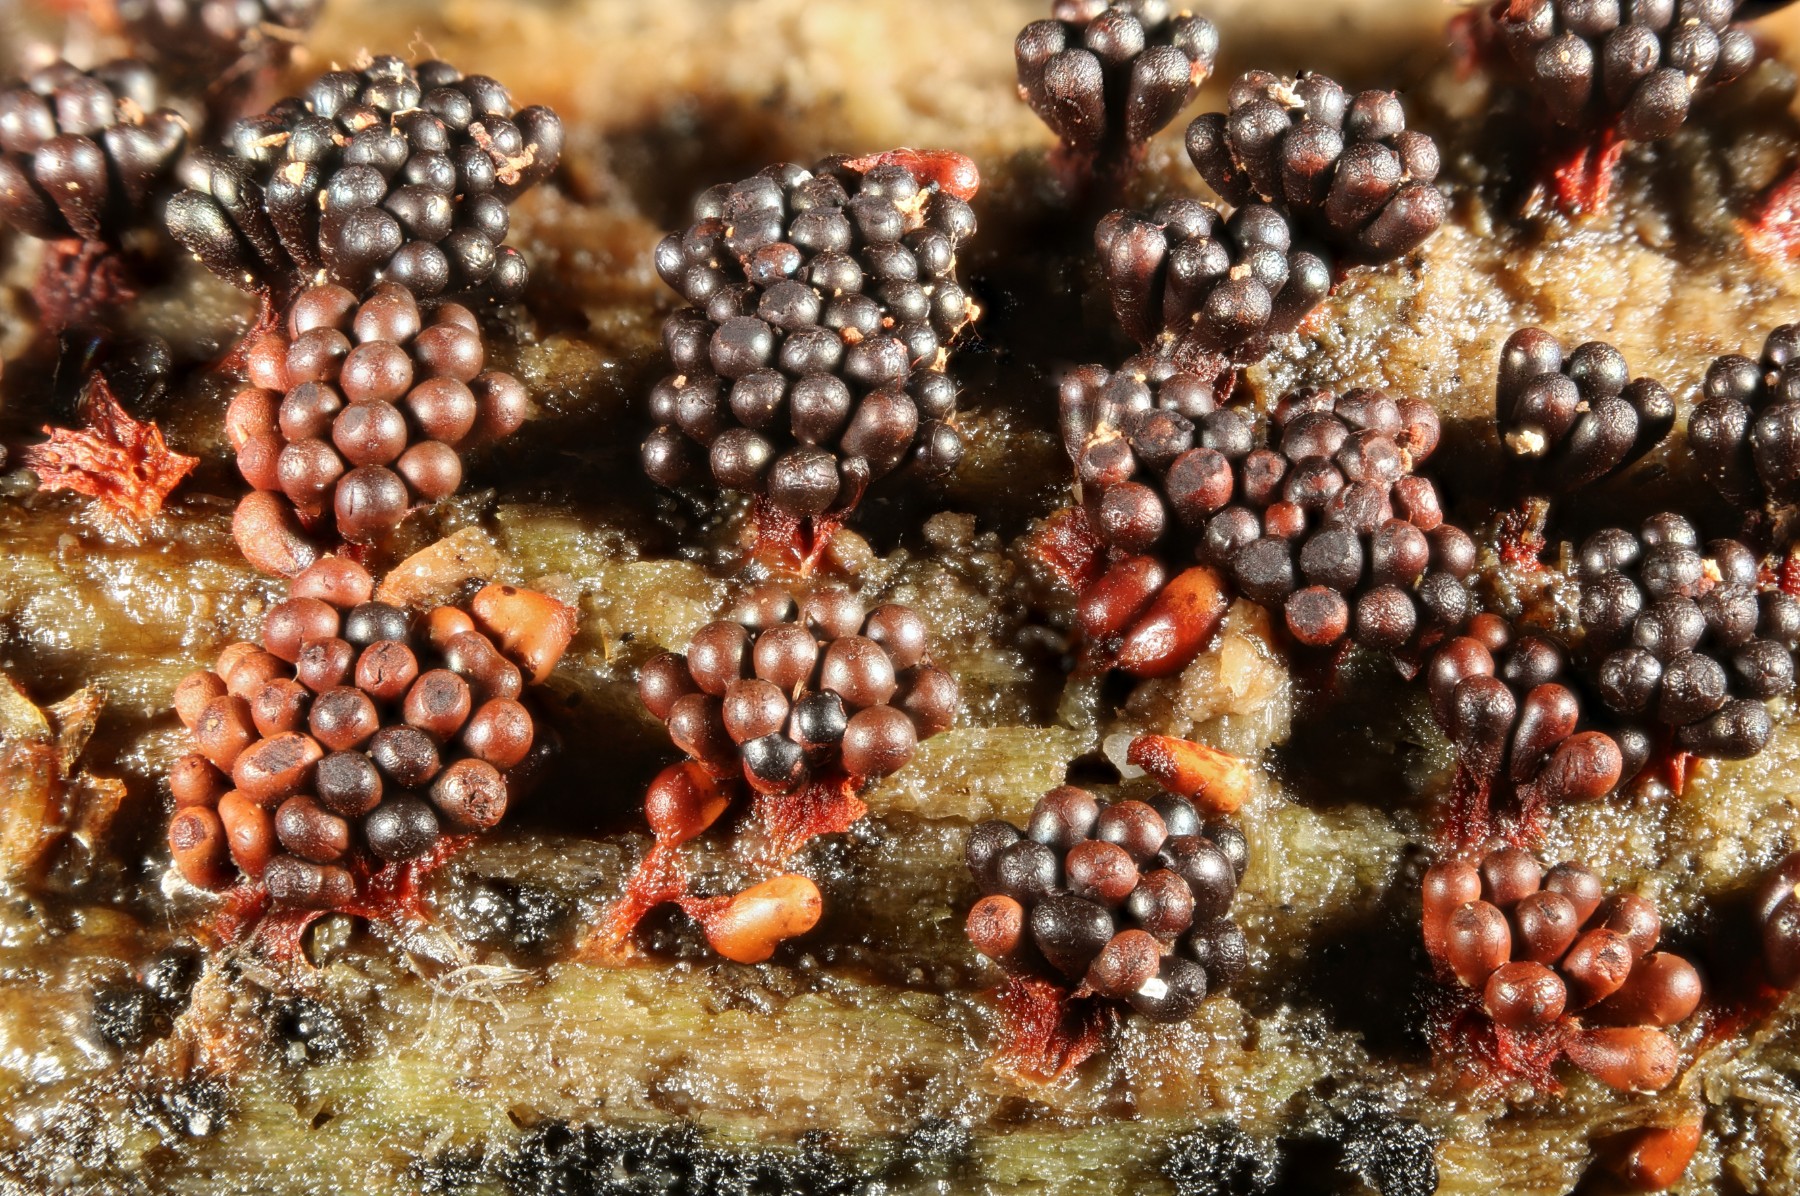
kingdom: Protozoa
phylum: Mycetozoa
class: Myxomycetes
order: Trichiales
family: Trichiaceae
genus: Metatrichia
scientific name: Metatrichia vesparia
